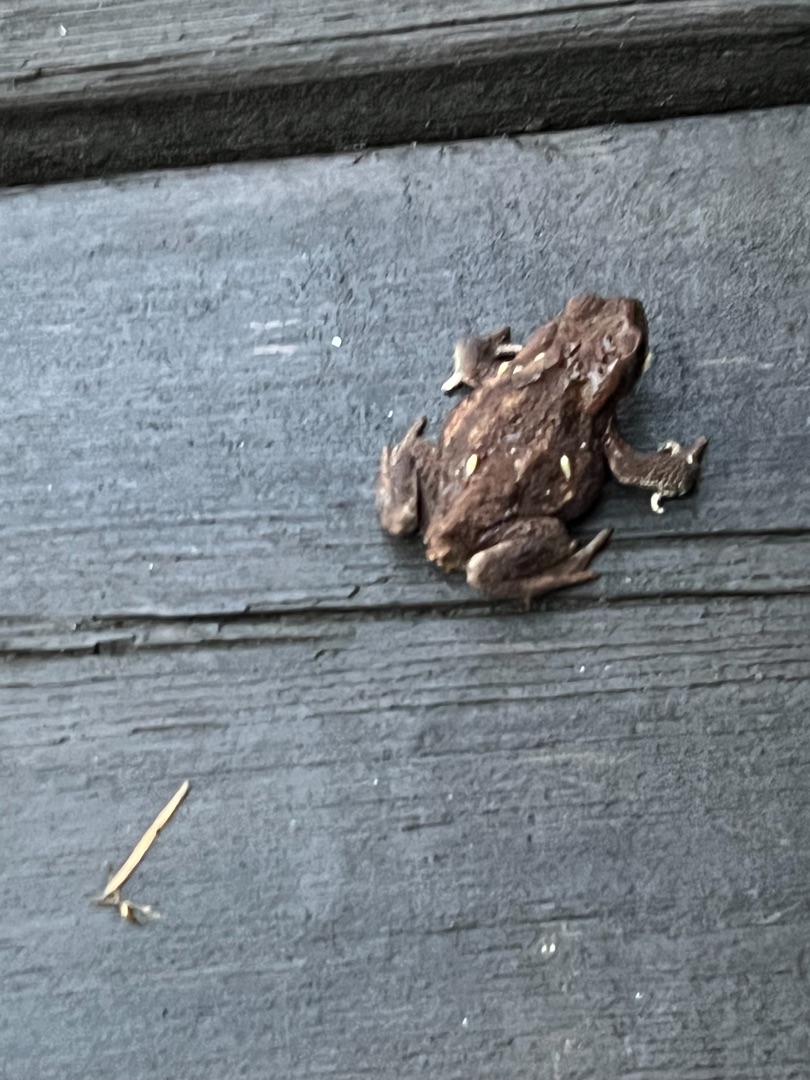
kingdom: Animalia
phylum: Chordata
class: Amphibia
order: Anura
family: Bufonidae
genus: Bufo
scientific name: Bufo bufo
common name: Skrubtudse
